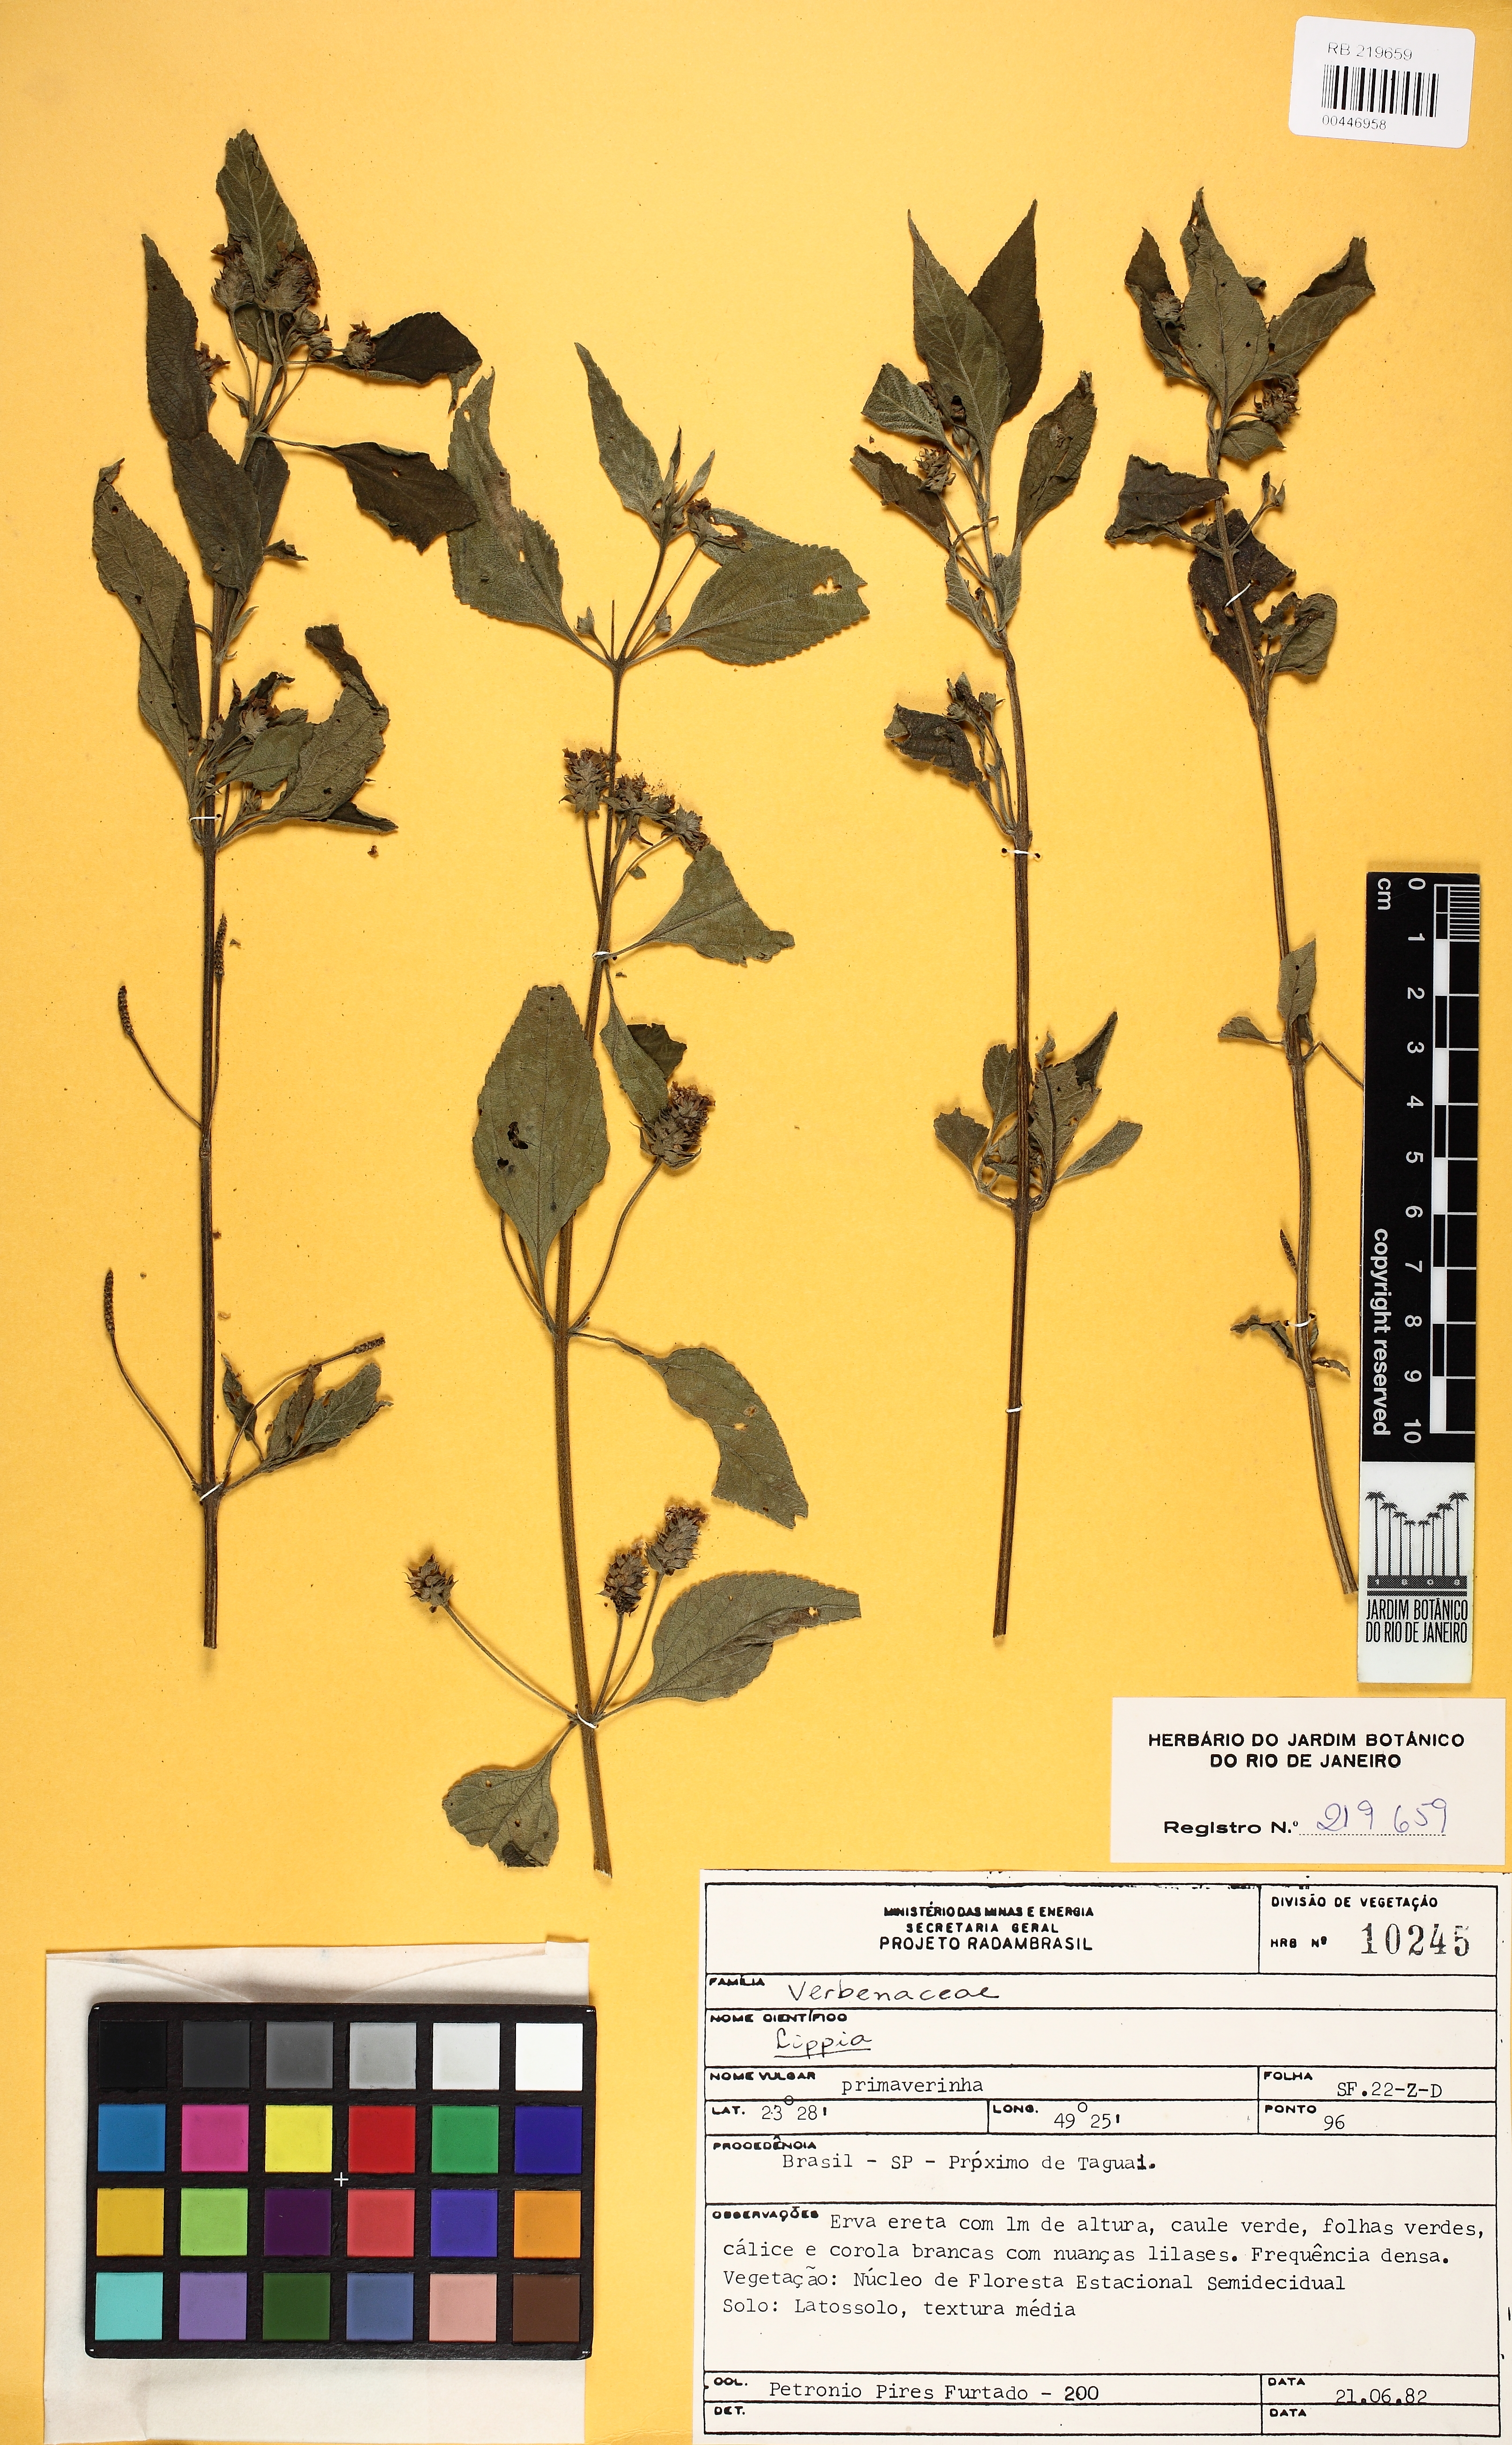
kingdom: Plantae
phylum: Tracheophyta
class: Magnoliopsida
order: Lamiales
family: Verbenaceae
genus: Lippia
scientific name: Lippia
